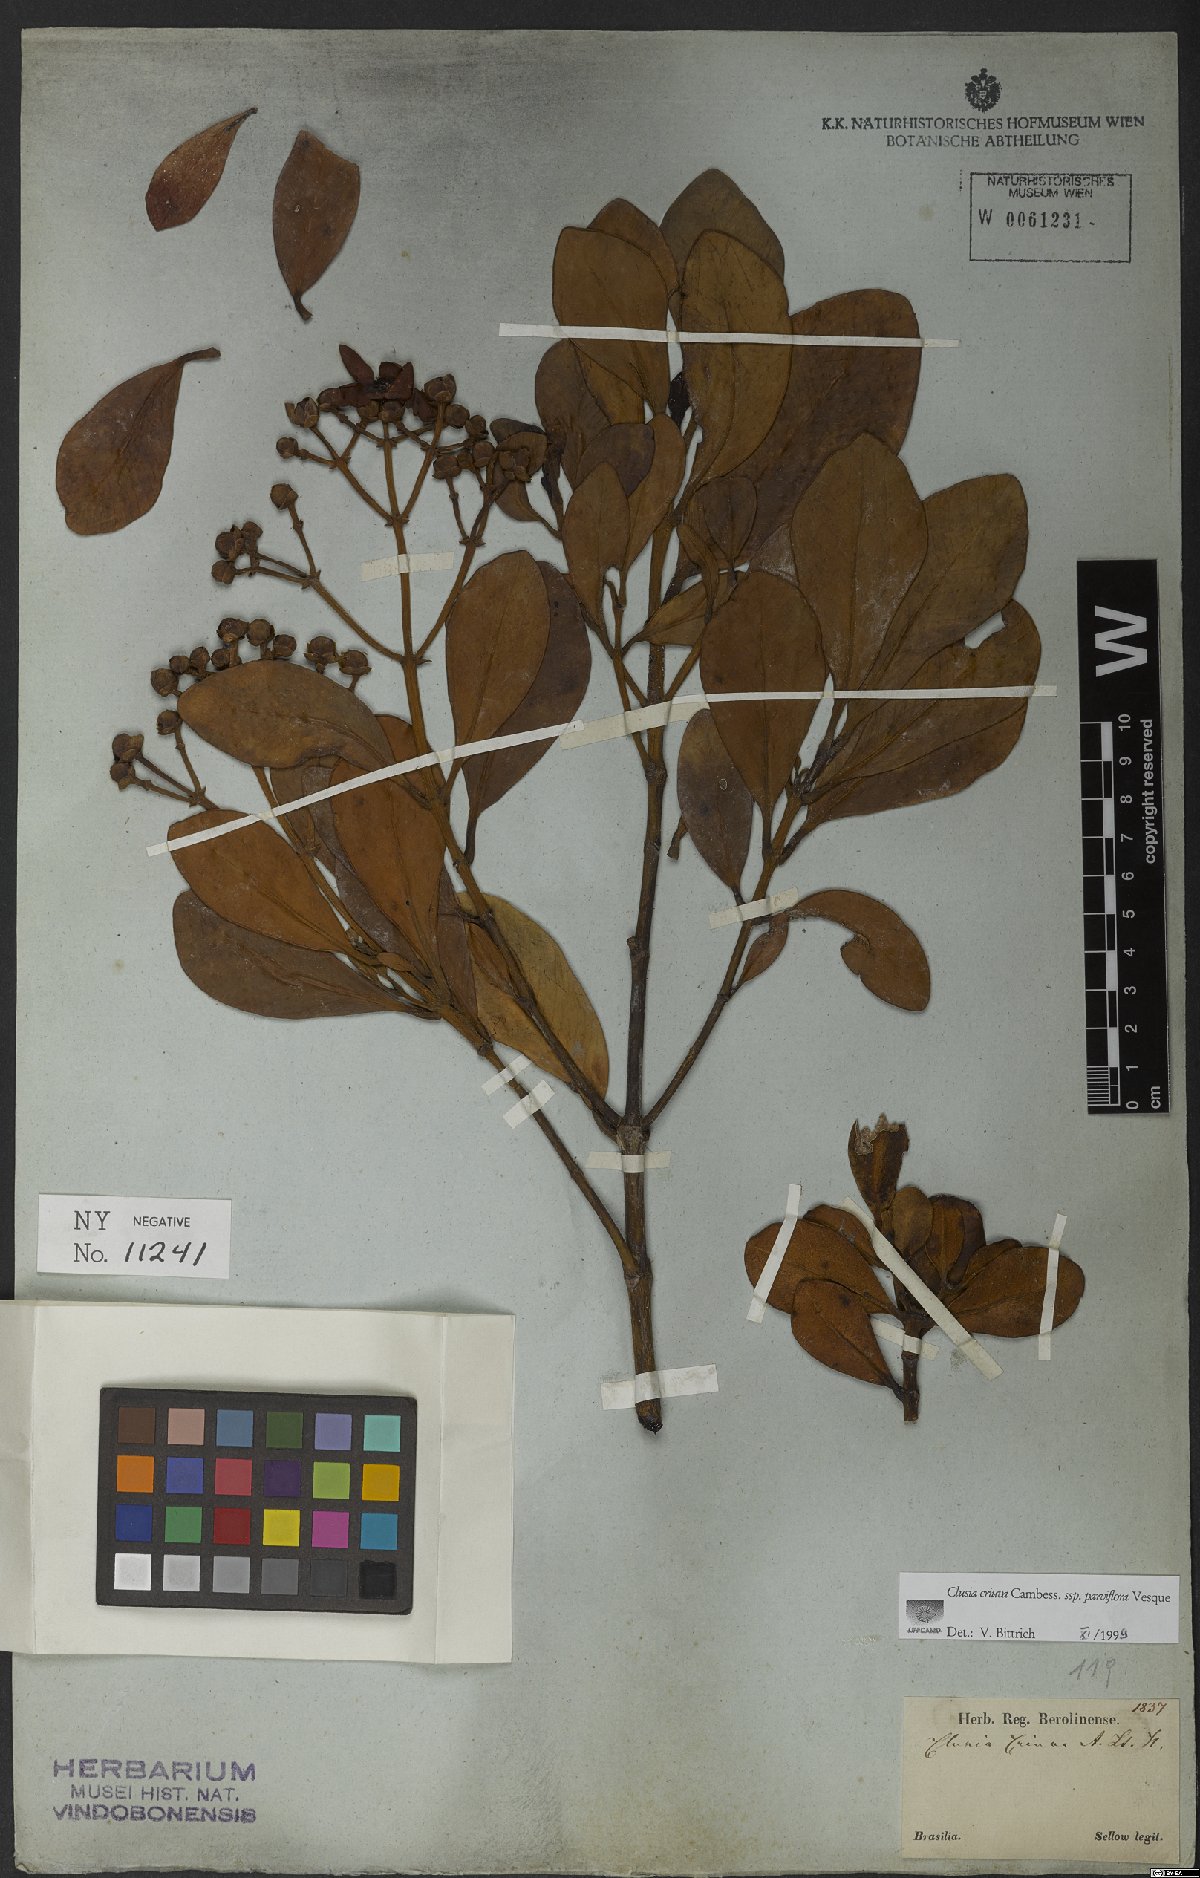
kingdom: Plantae
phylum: Tracheophyta
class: Magnoliopsida
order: Malpighiales
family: Clusiaceae
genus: Clusia
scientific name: Clusia criuva
